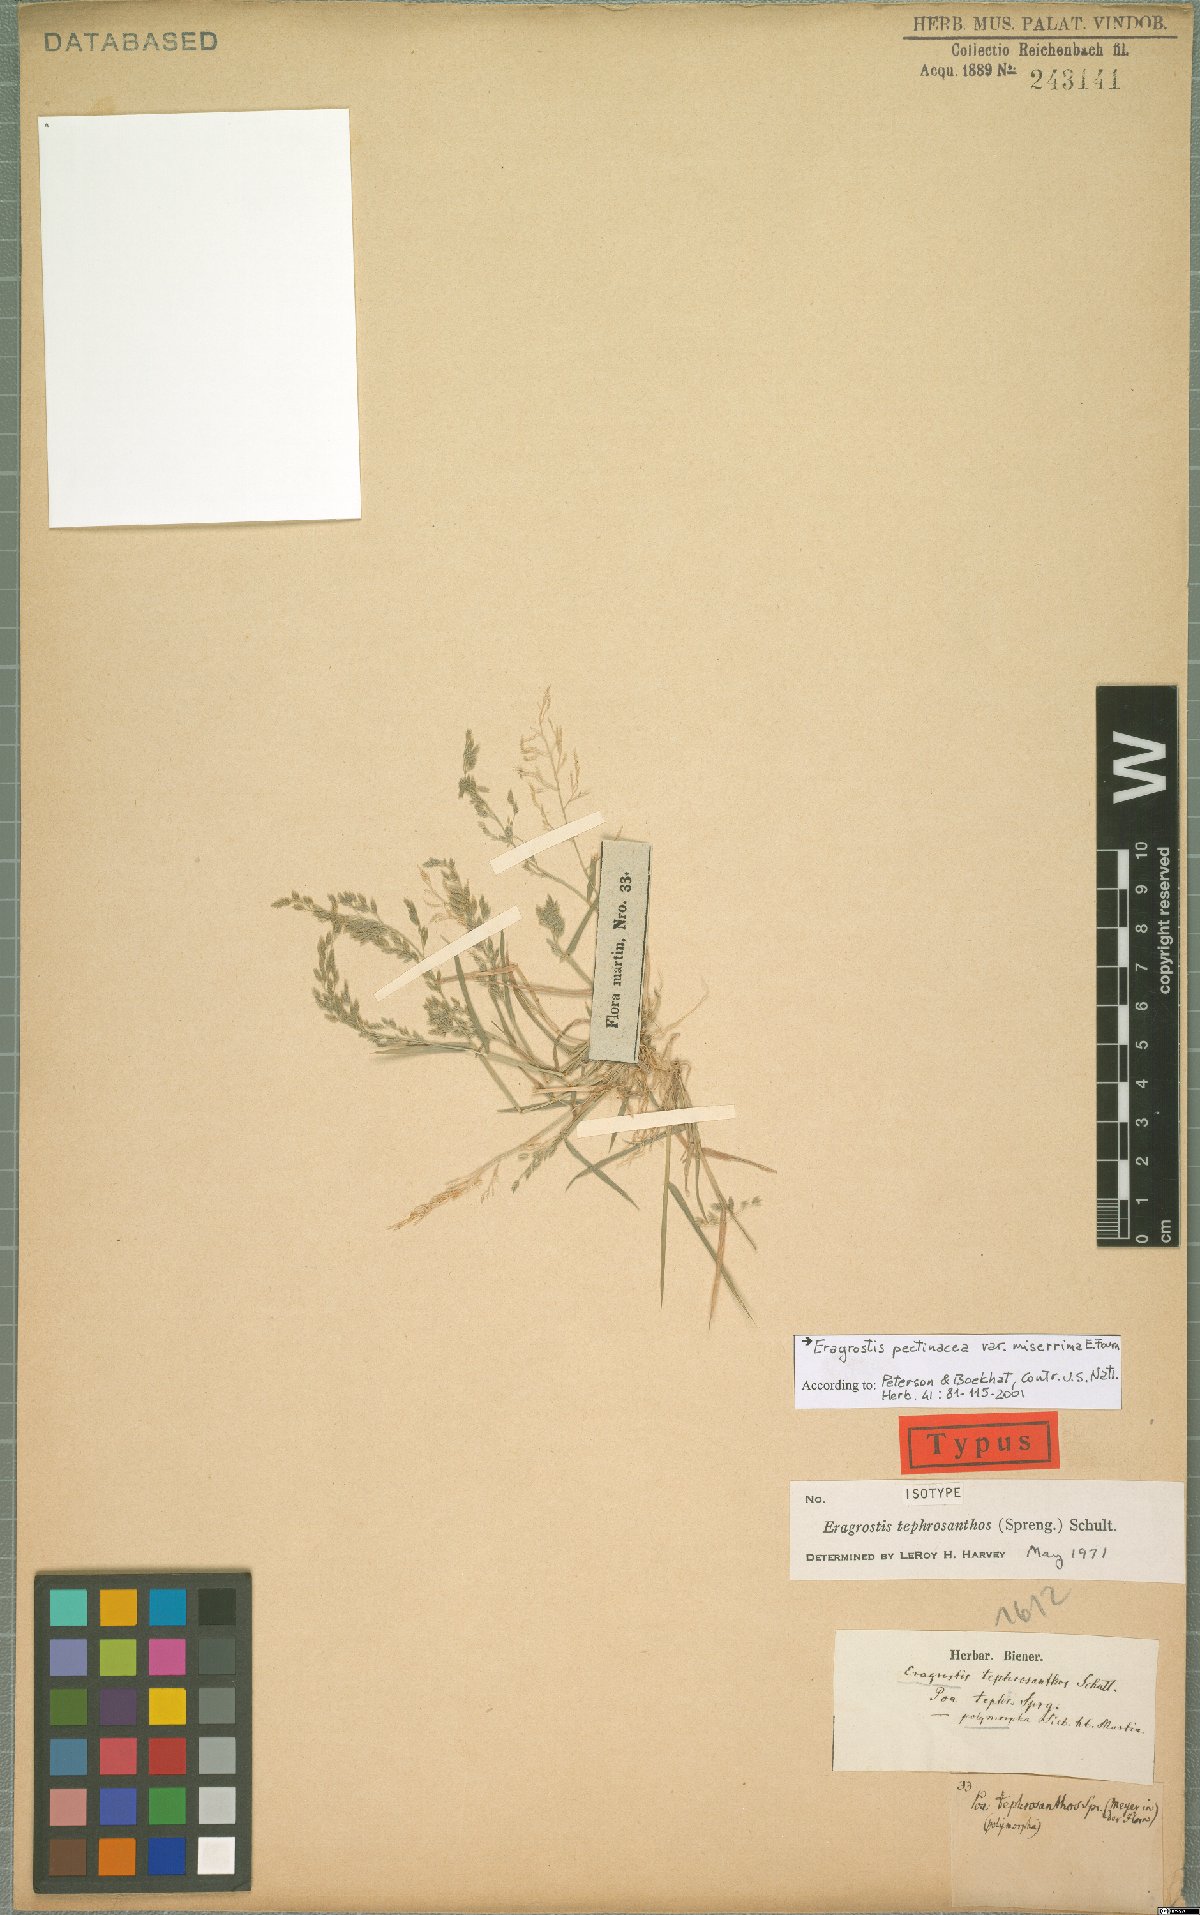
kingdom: Plantae
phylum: Tracheophyta
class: Liliopsida
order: Poales
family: Poaceae
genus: Eragrostis
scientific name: Eragrostis tephrosanthos
